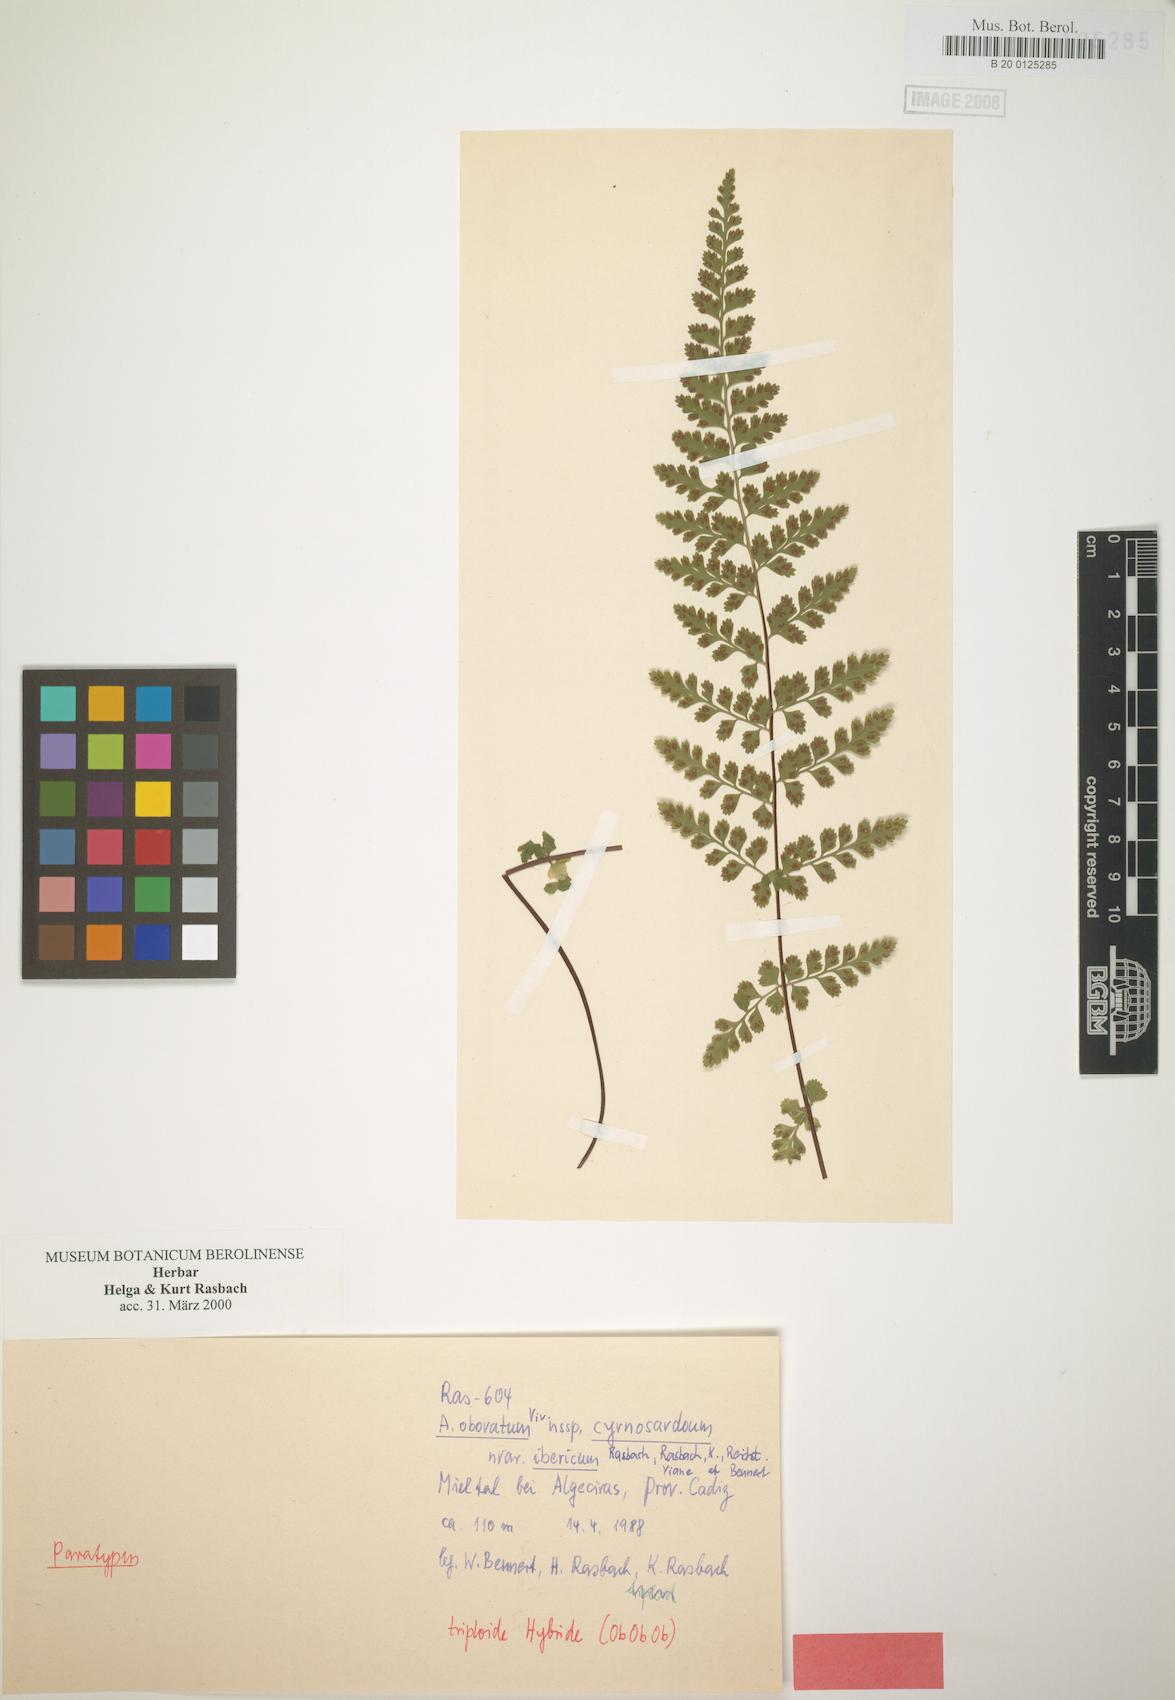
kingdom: Plantae
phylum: Tracheophyta
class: Polypodiopsida
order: Polypodiales
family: Aspleniaceae
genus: Asplenium
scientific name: Asplenium obovatum
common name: Lanceolate spleenwort
